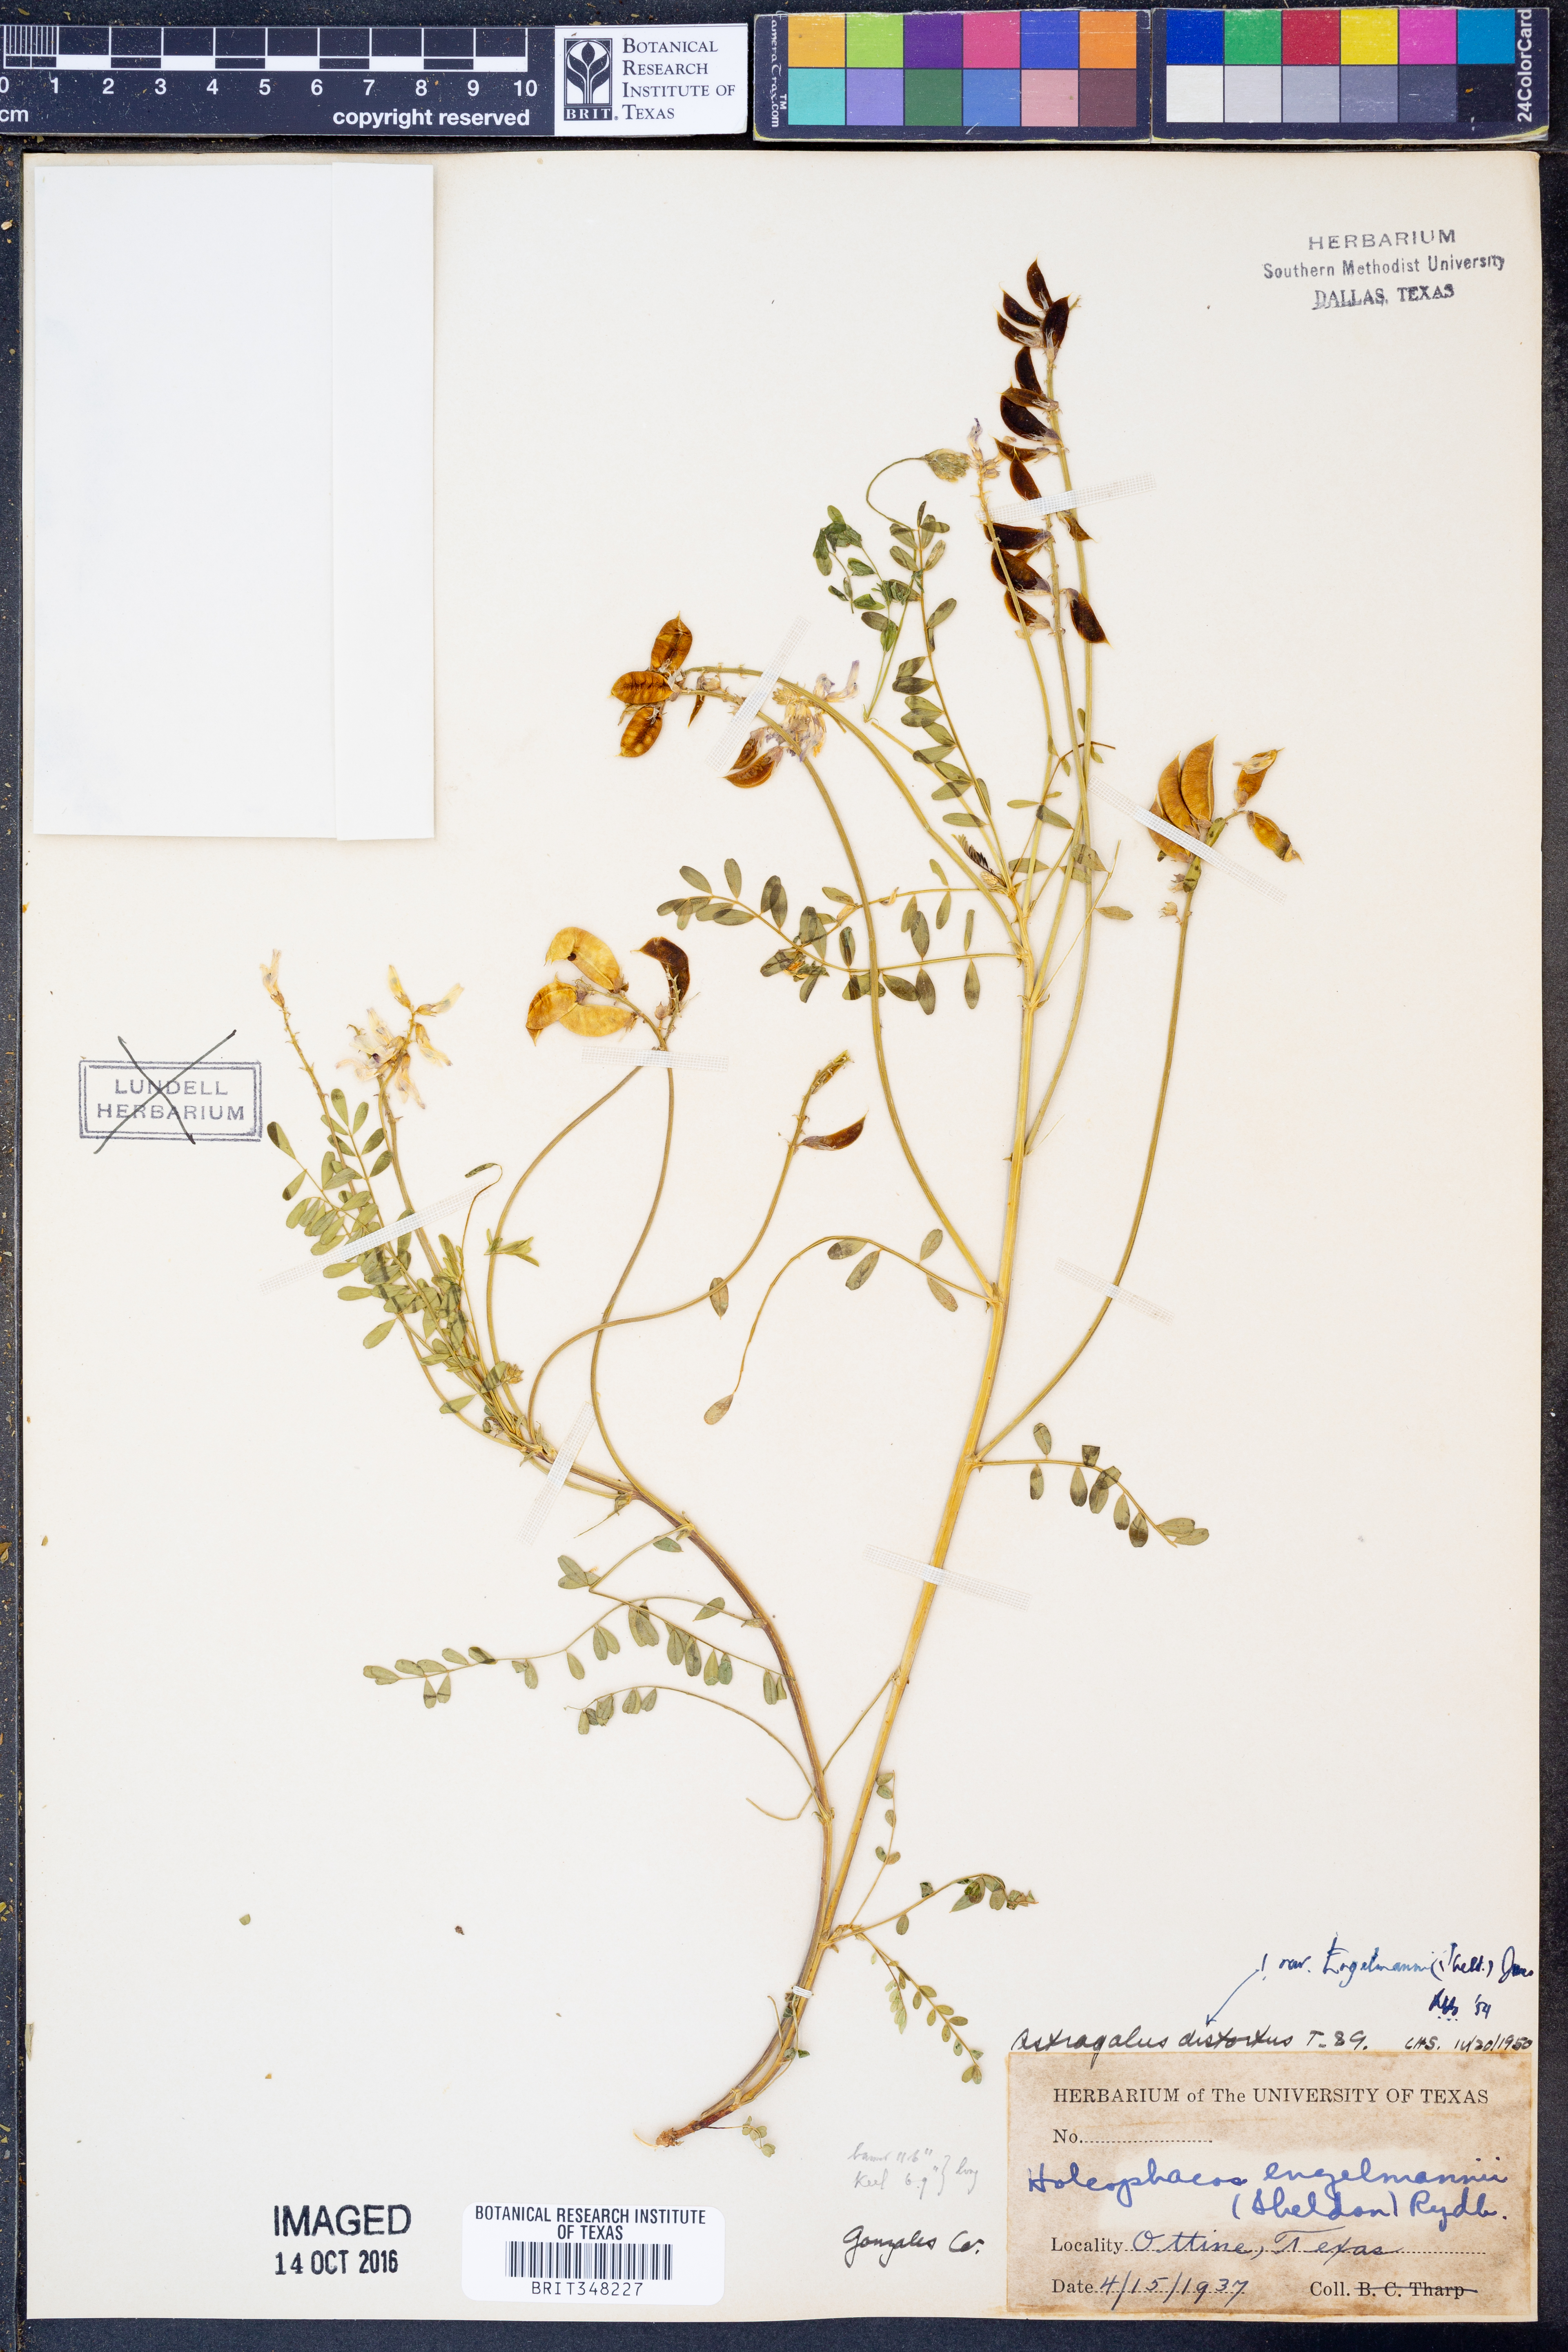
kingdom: Plantae
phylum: Tracheophyta
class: Magnoliopsida
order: Fabales
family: Fabaceae
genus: Astragalus
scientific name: Astragalus distortus
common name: Ozark milk-vetch
